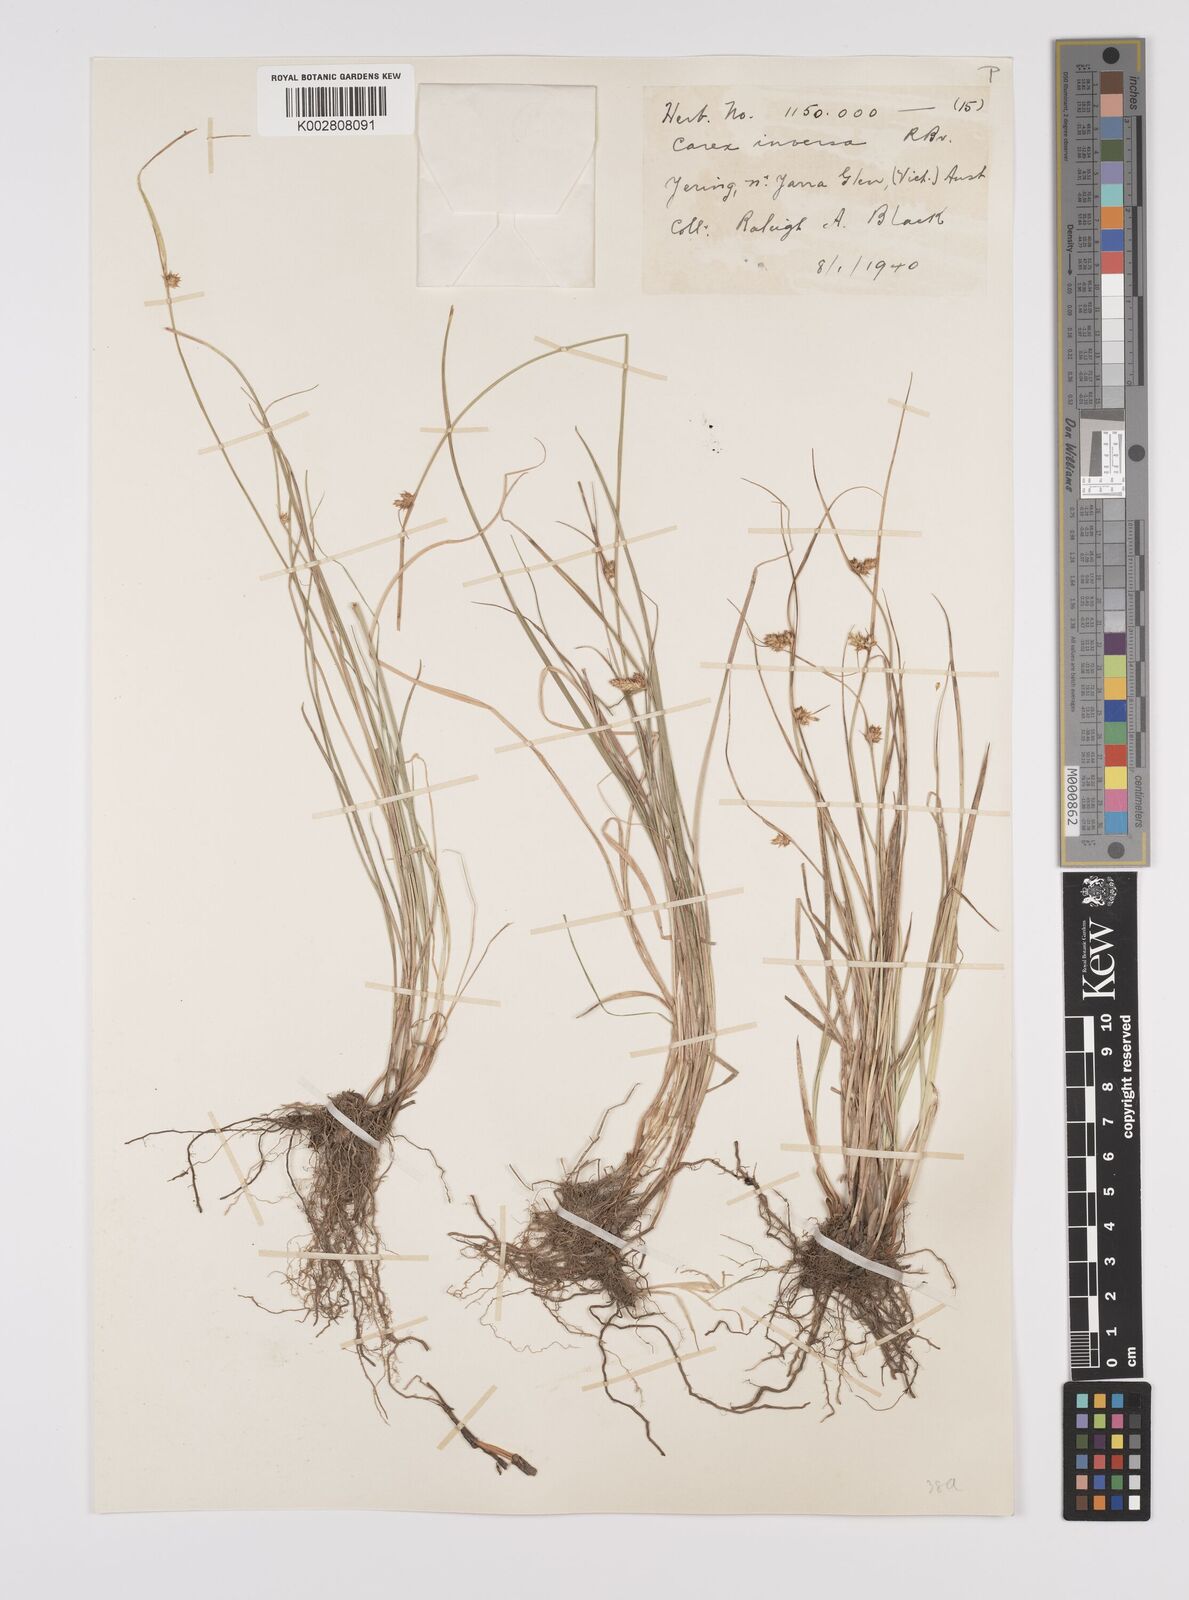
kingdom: Plantae
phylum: Tracheophyta
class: Liliopsida
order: Poales
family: Cyperaceae
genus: Carex
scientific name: Carex inversa
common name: Knob sedge
